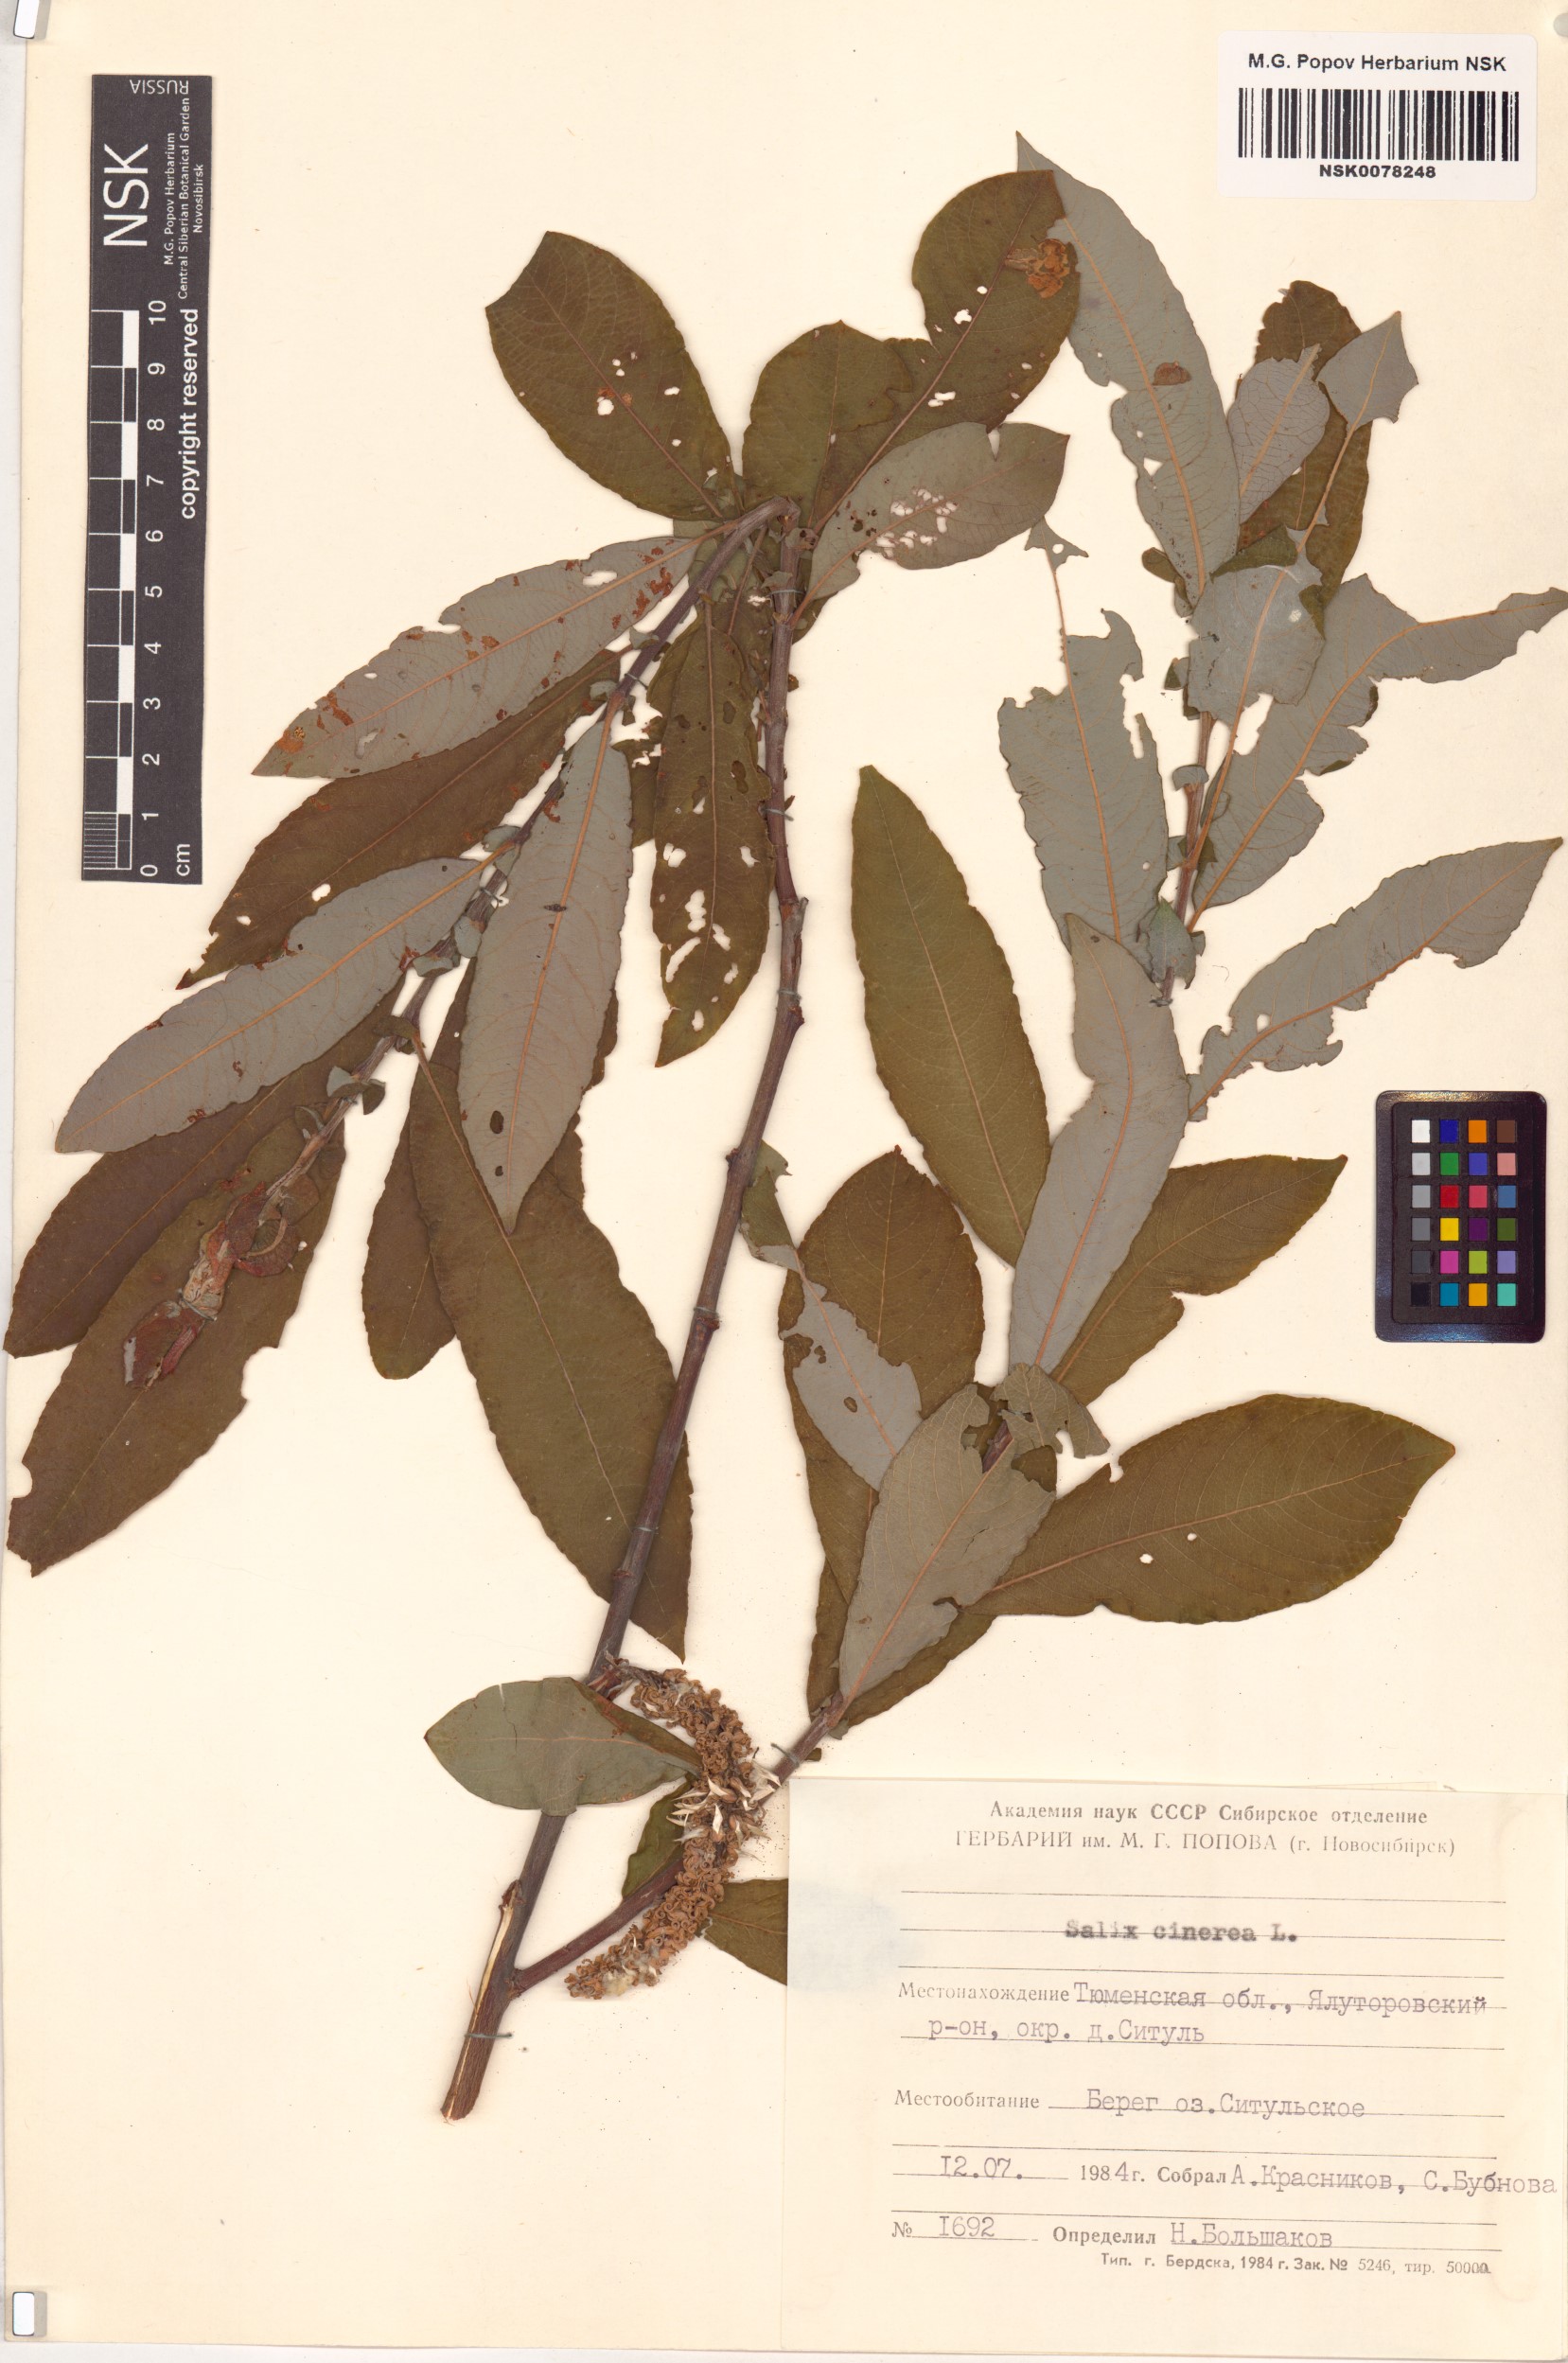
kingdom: Plantae
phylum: Tracheophyta
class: Magnoliopsida
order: Malpighiales
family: Salicaceae
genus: Salix
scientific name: Salix cinerea
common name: Common sallow
